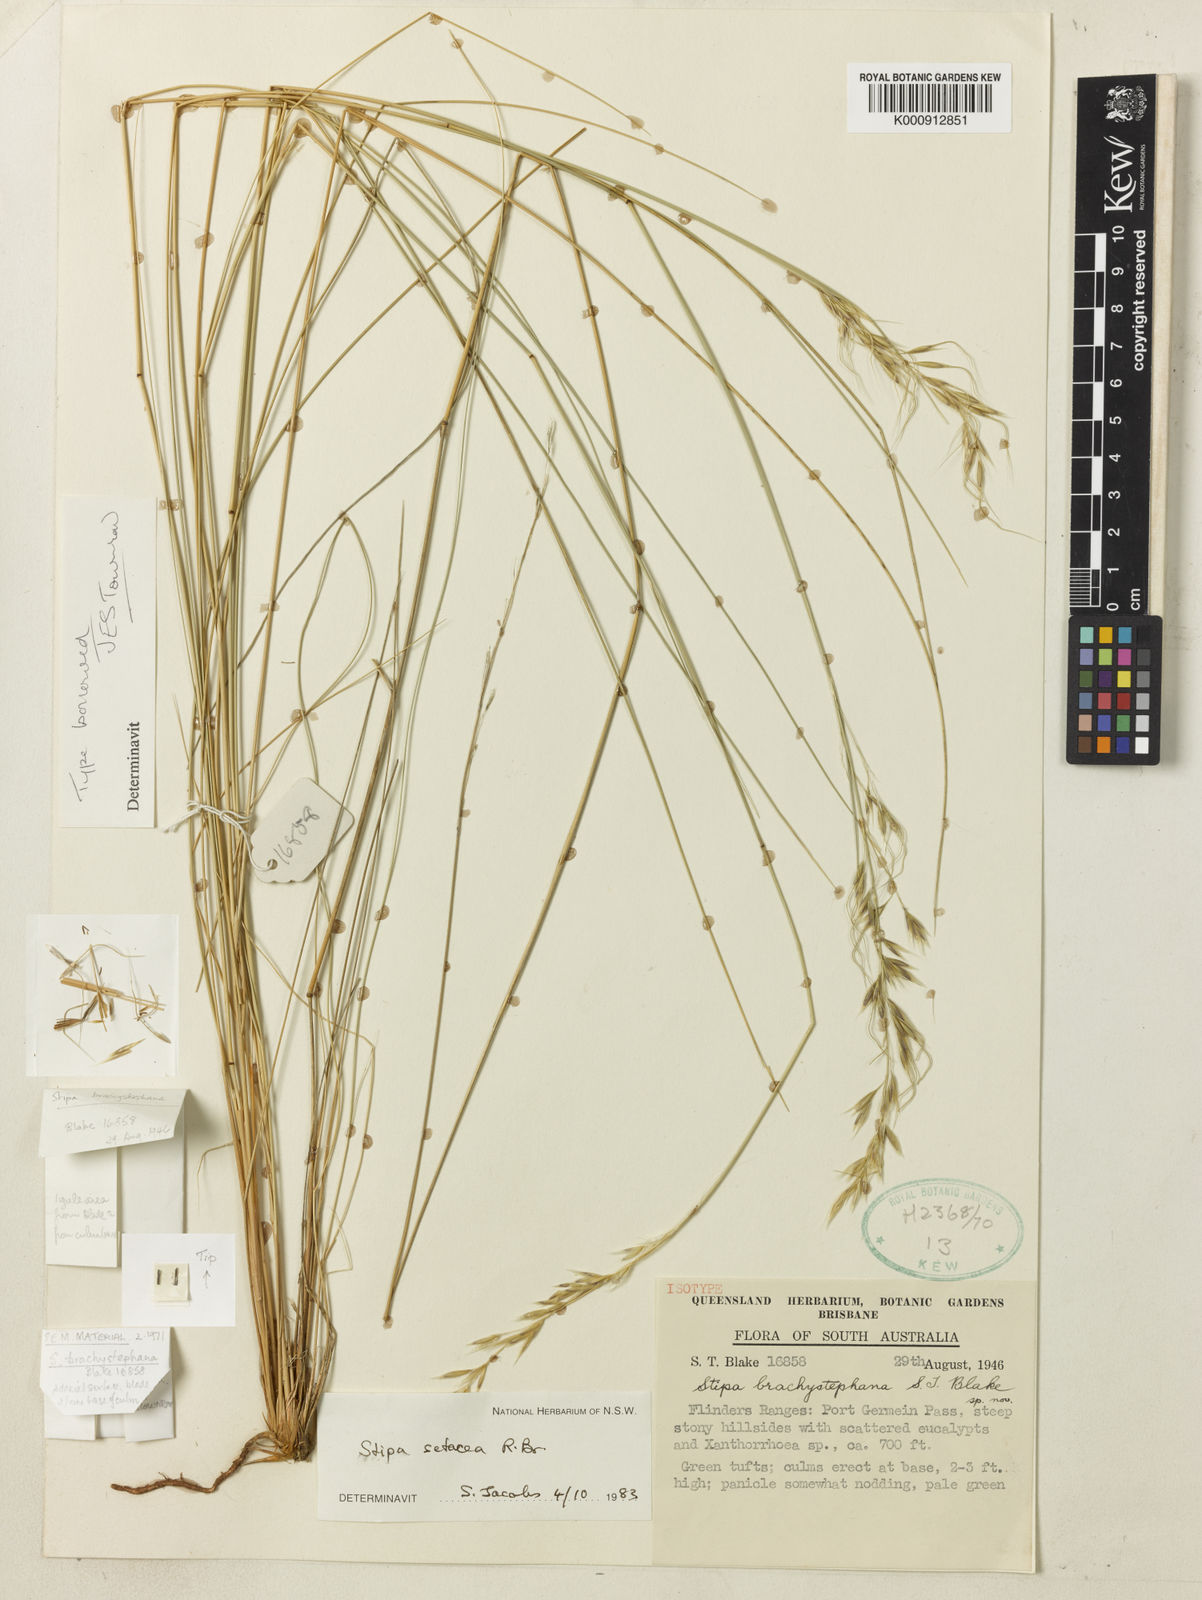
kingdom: Plantae
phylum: Tracheophyta
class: Liliopsida
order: Poales
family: Poaceae
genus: Piptochaetium
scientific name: Piptochaetium
